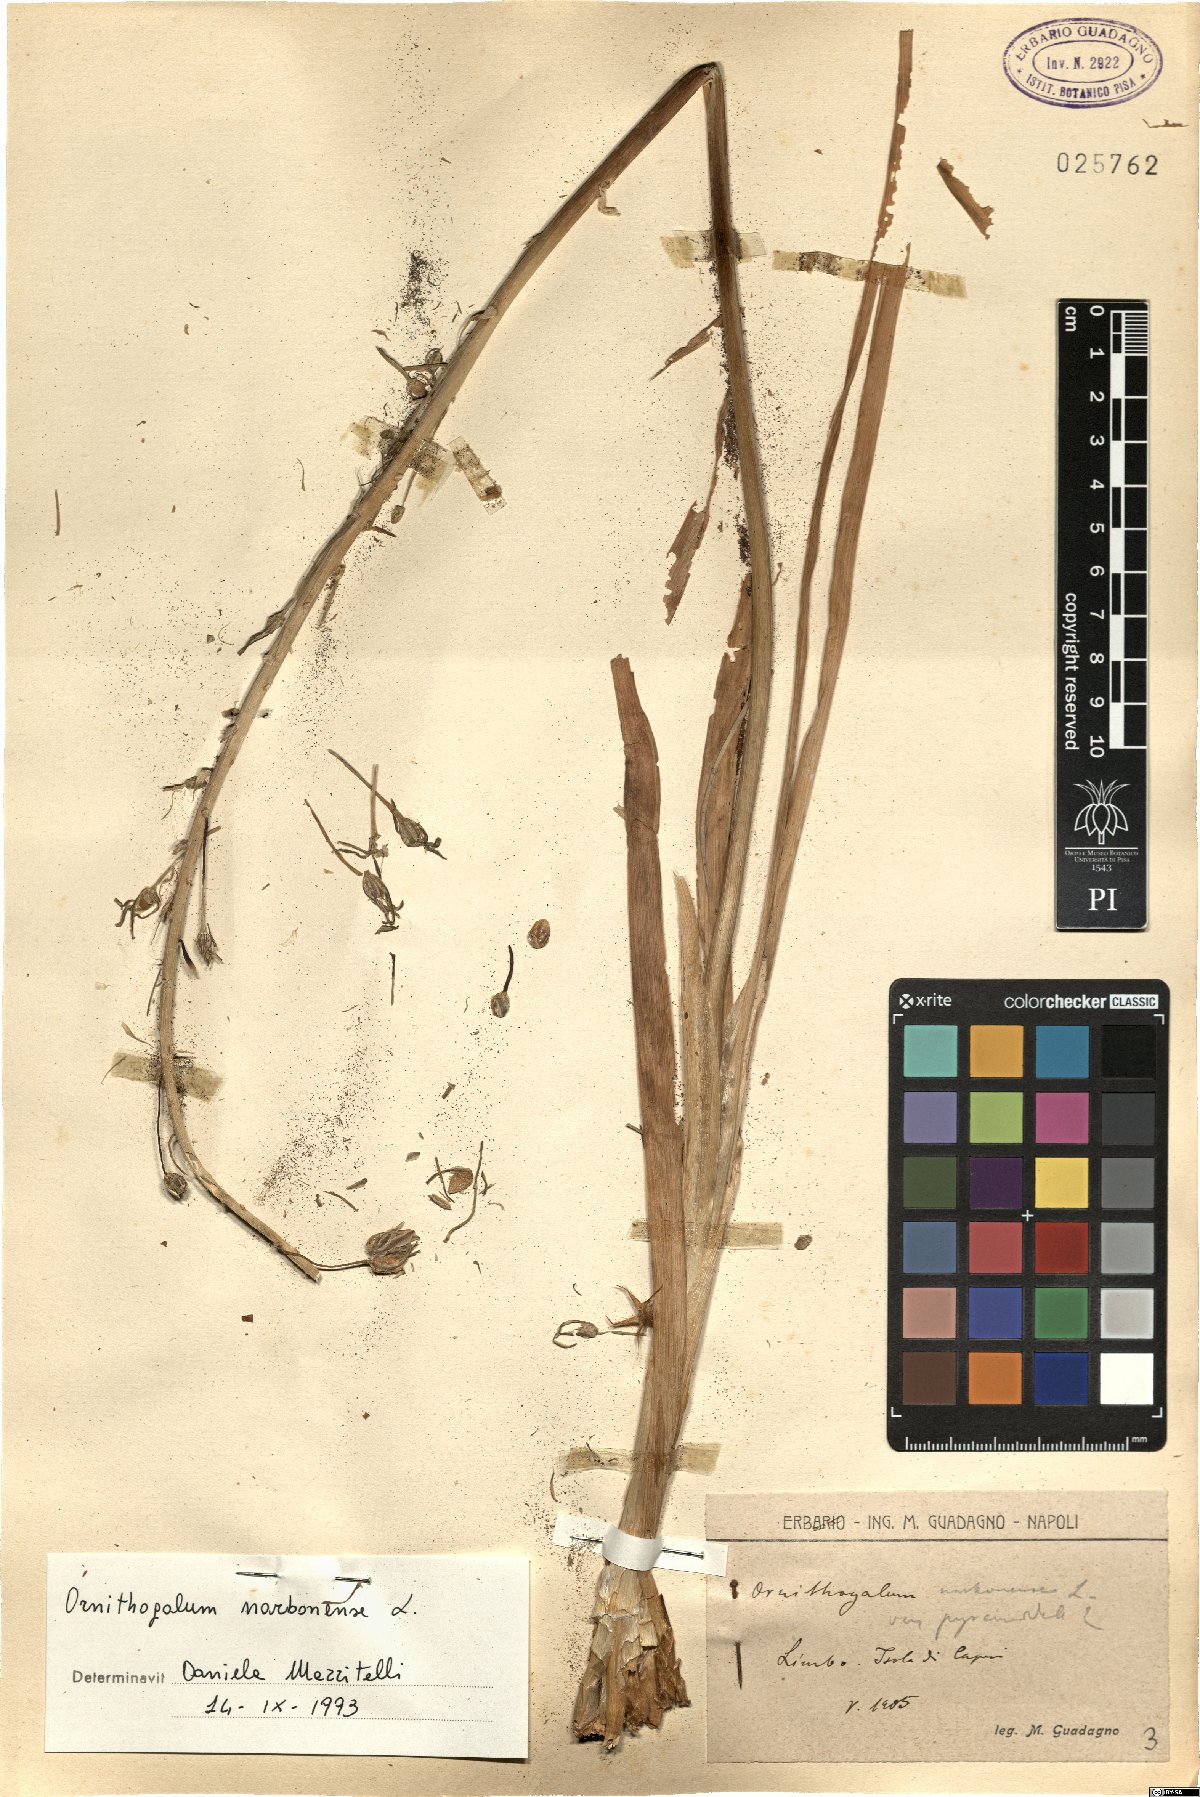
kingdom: Plantae
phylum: Tracheophyta
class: Liliopsida
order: Asparagales
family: Asparagaceae
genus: Ornithogalum
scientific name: Ornithogalum narbonense
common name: Bath-asparagus
